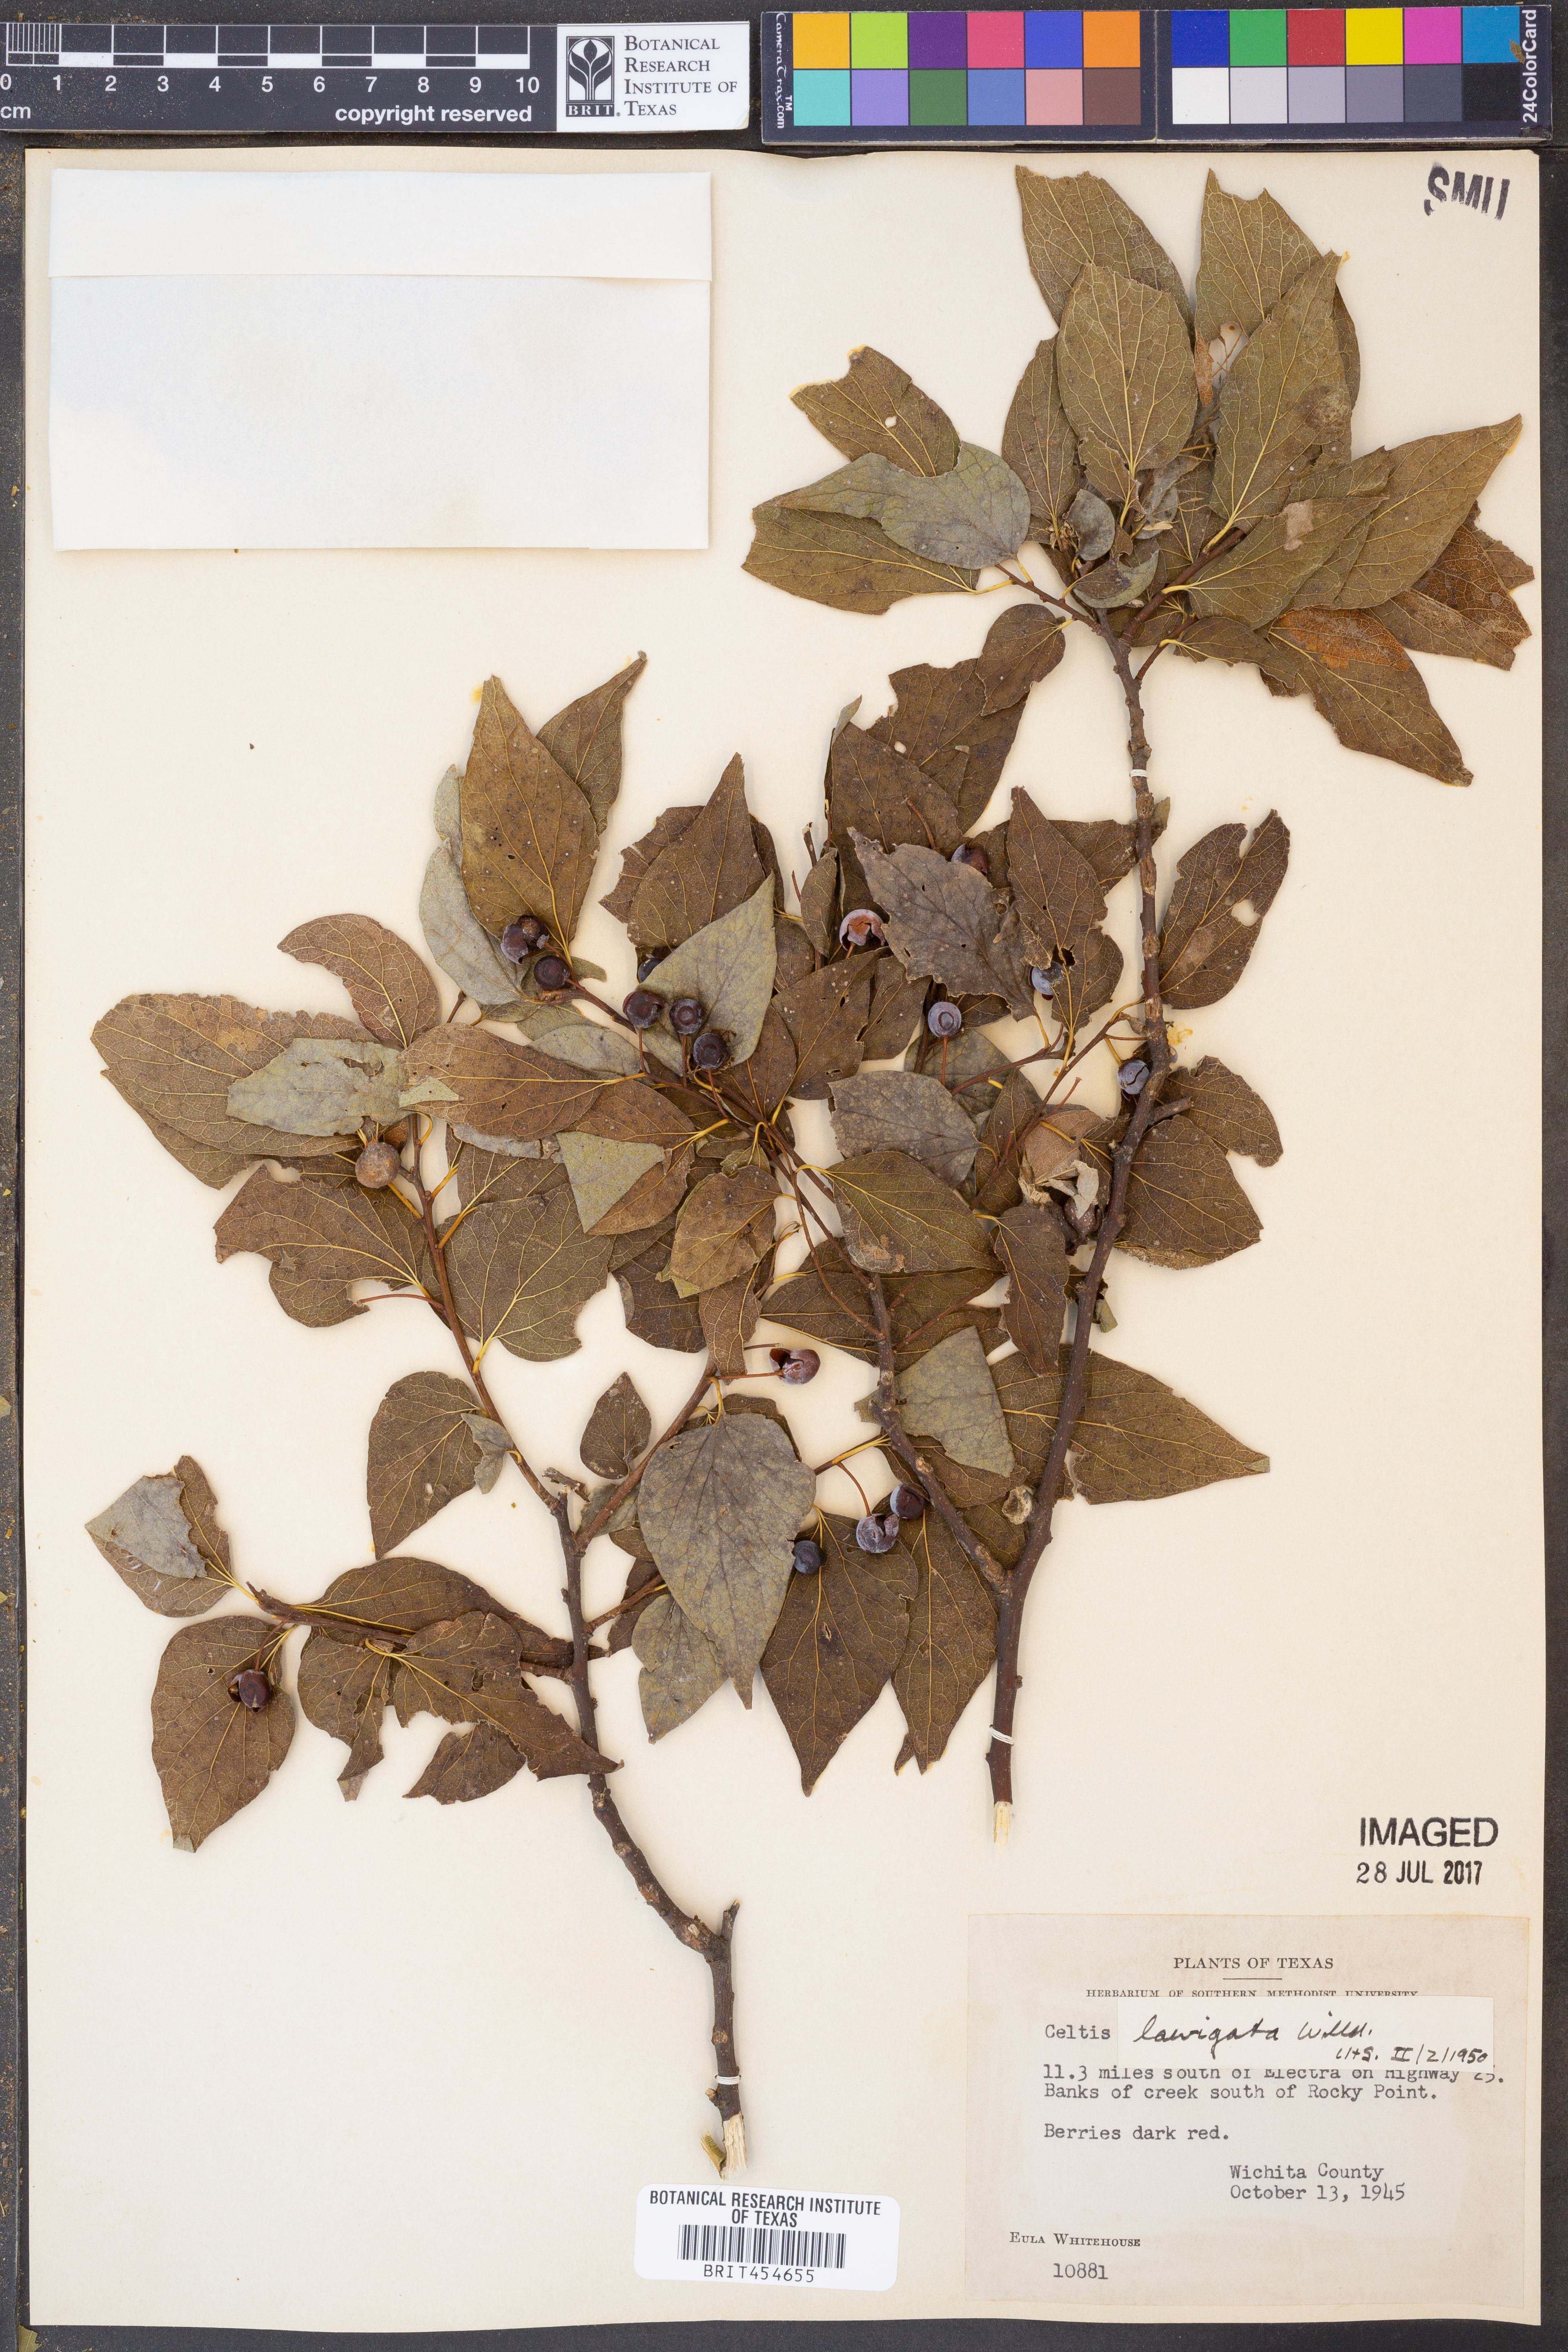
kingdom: Plantae
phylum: Tracheophyta
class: Magnoliopsida
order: Rosales
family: Cannabaceae
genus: Celtis
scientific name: Celtis laevigata
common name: Sugarberry
